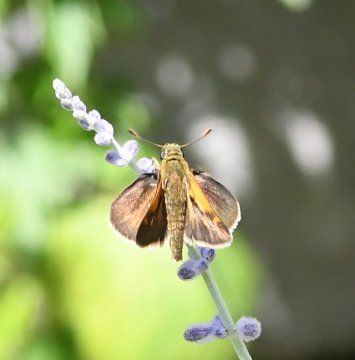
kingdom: Animalia
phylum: Arthropoda
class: Insecta
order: Lepidoptera
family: Hesperiidae
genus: Polites
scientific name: Polites themistocles
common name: Tawny-edged Skipper
